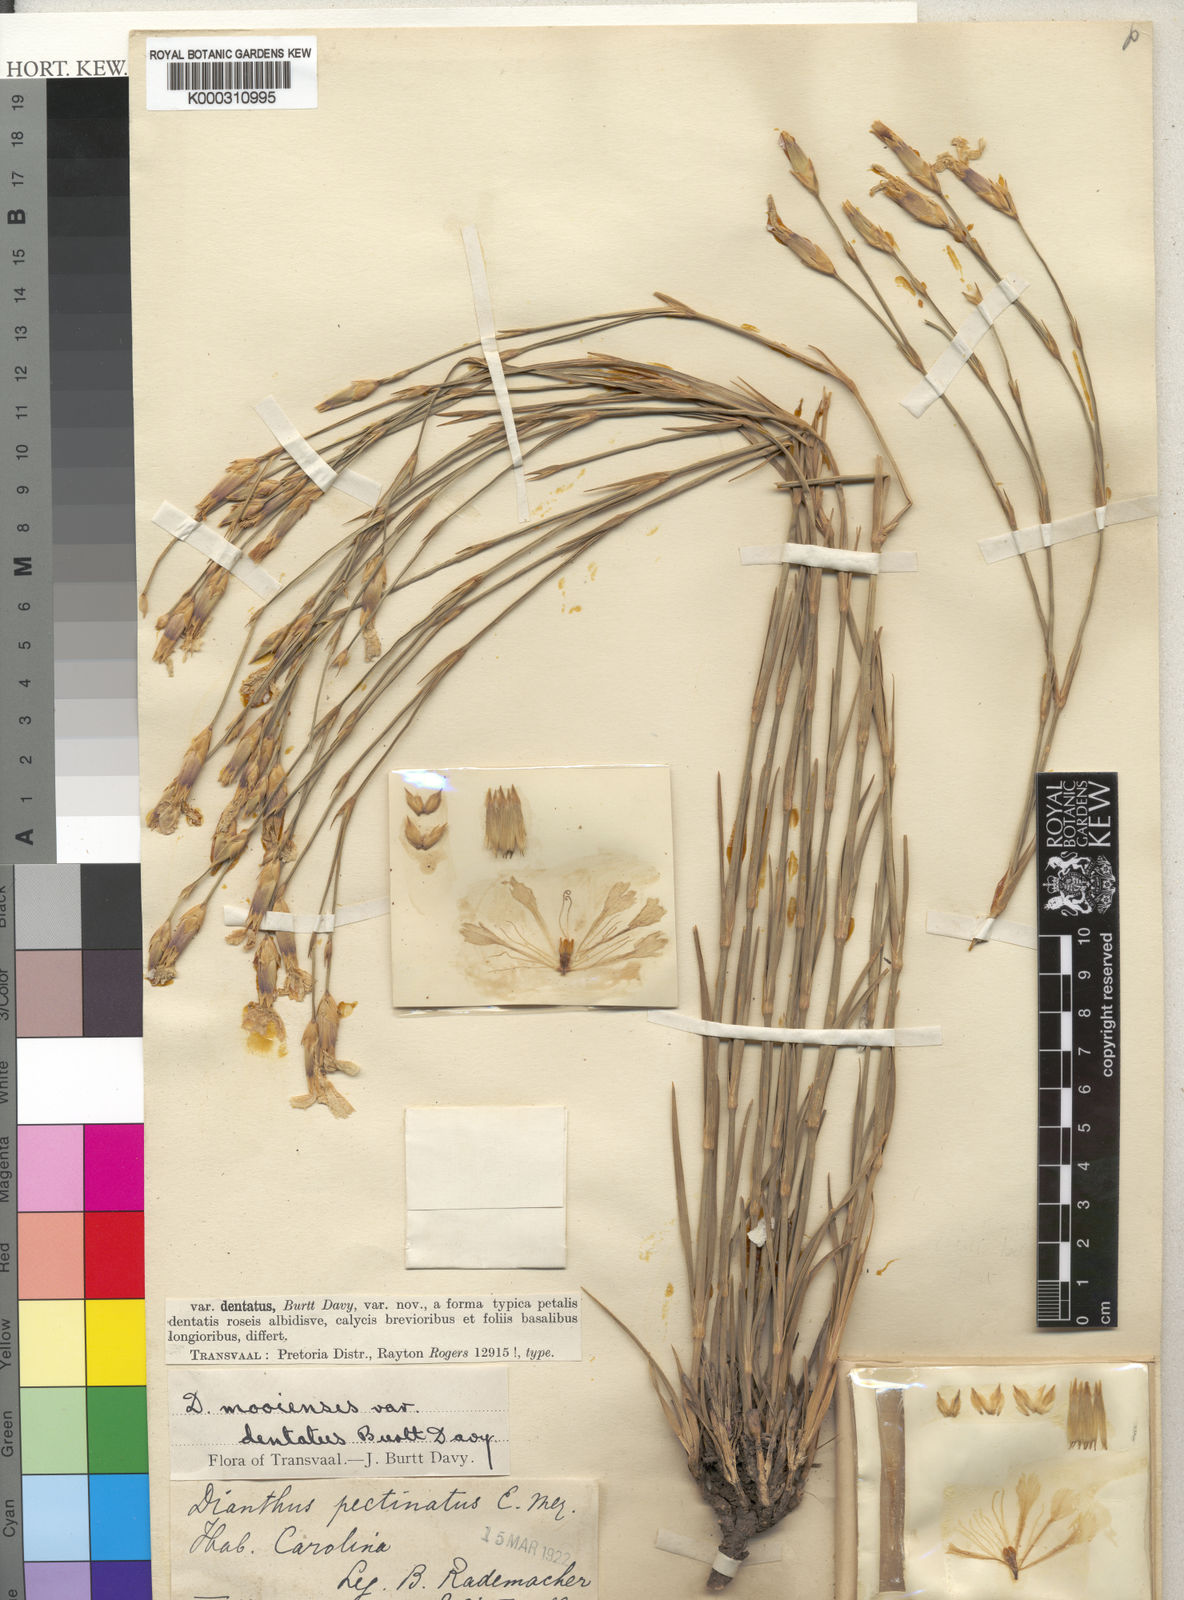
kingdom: Plantae
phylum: Tracheophyta
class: Magnoliopsida
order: Caryophyllales
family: Caryophyllaceae
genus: Dianthus
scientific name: Dianthus
